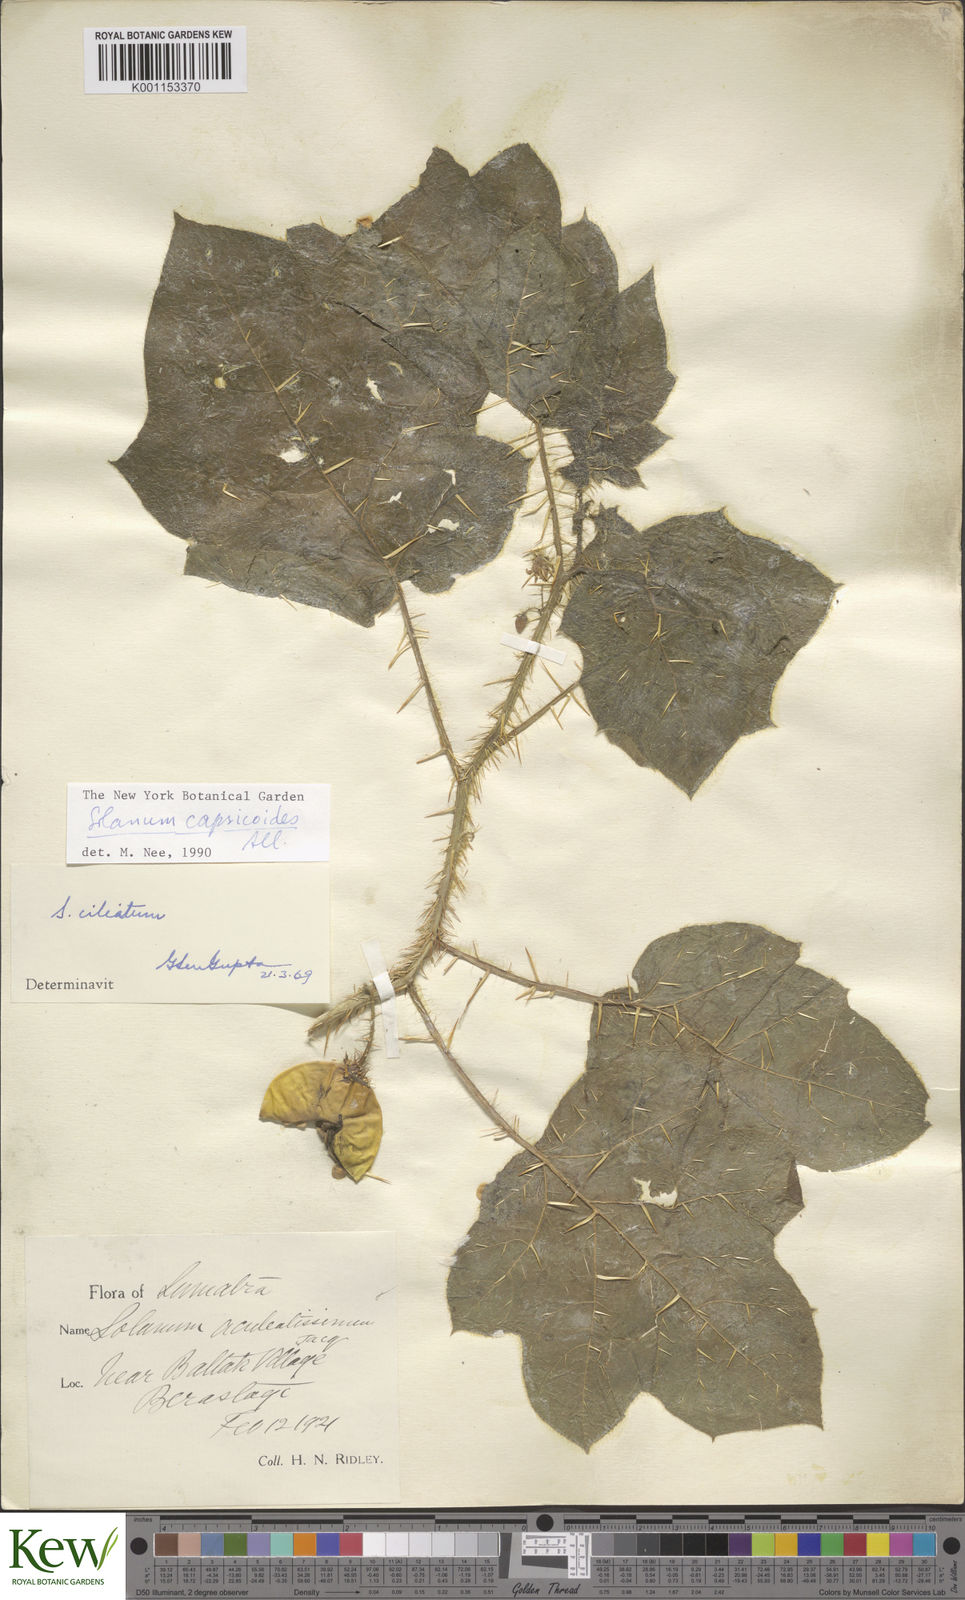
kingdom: Plantae
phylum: Tracheophyta
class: Magnoliopsida
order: Solanales
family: Solanaceae
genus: Solanum
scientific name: Solanum aculeatissimum
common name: Dutch eggplant
